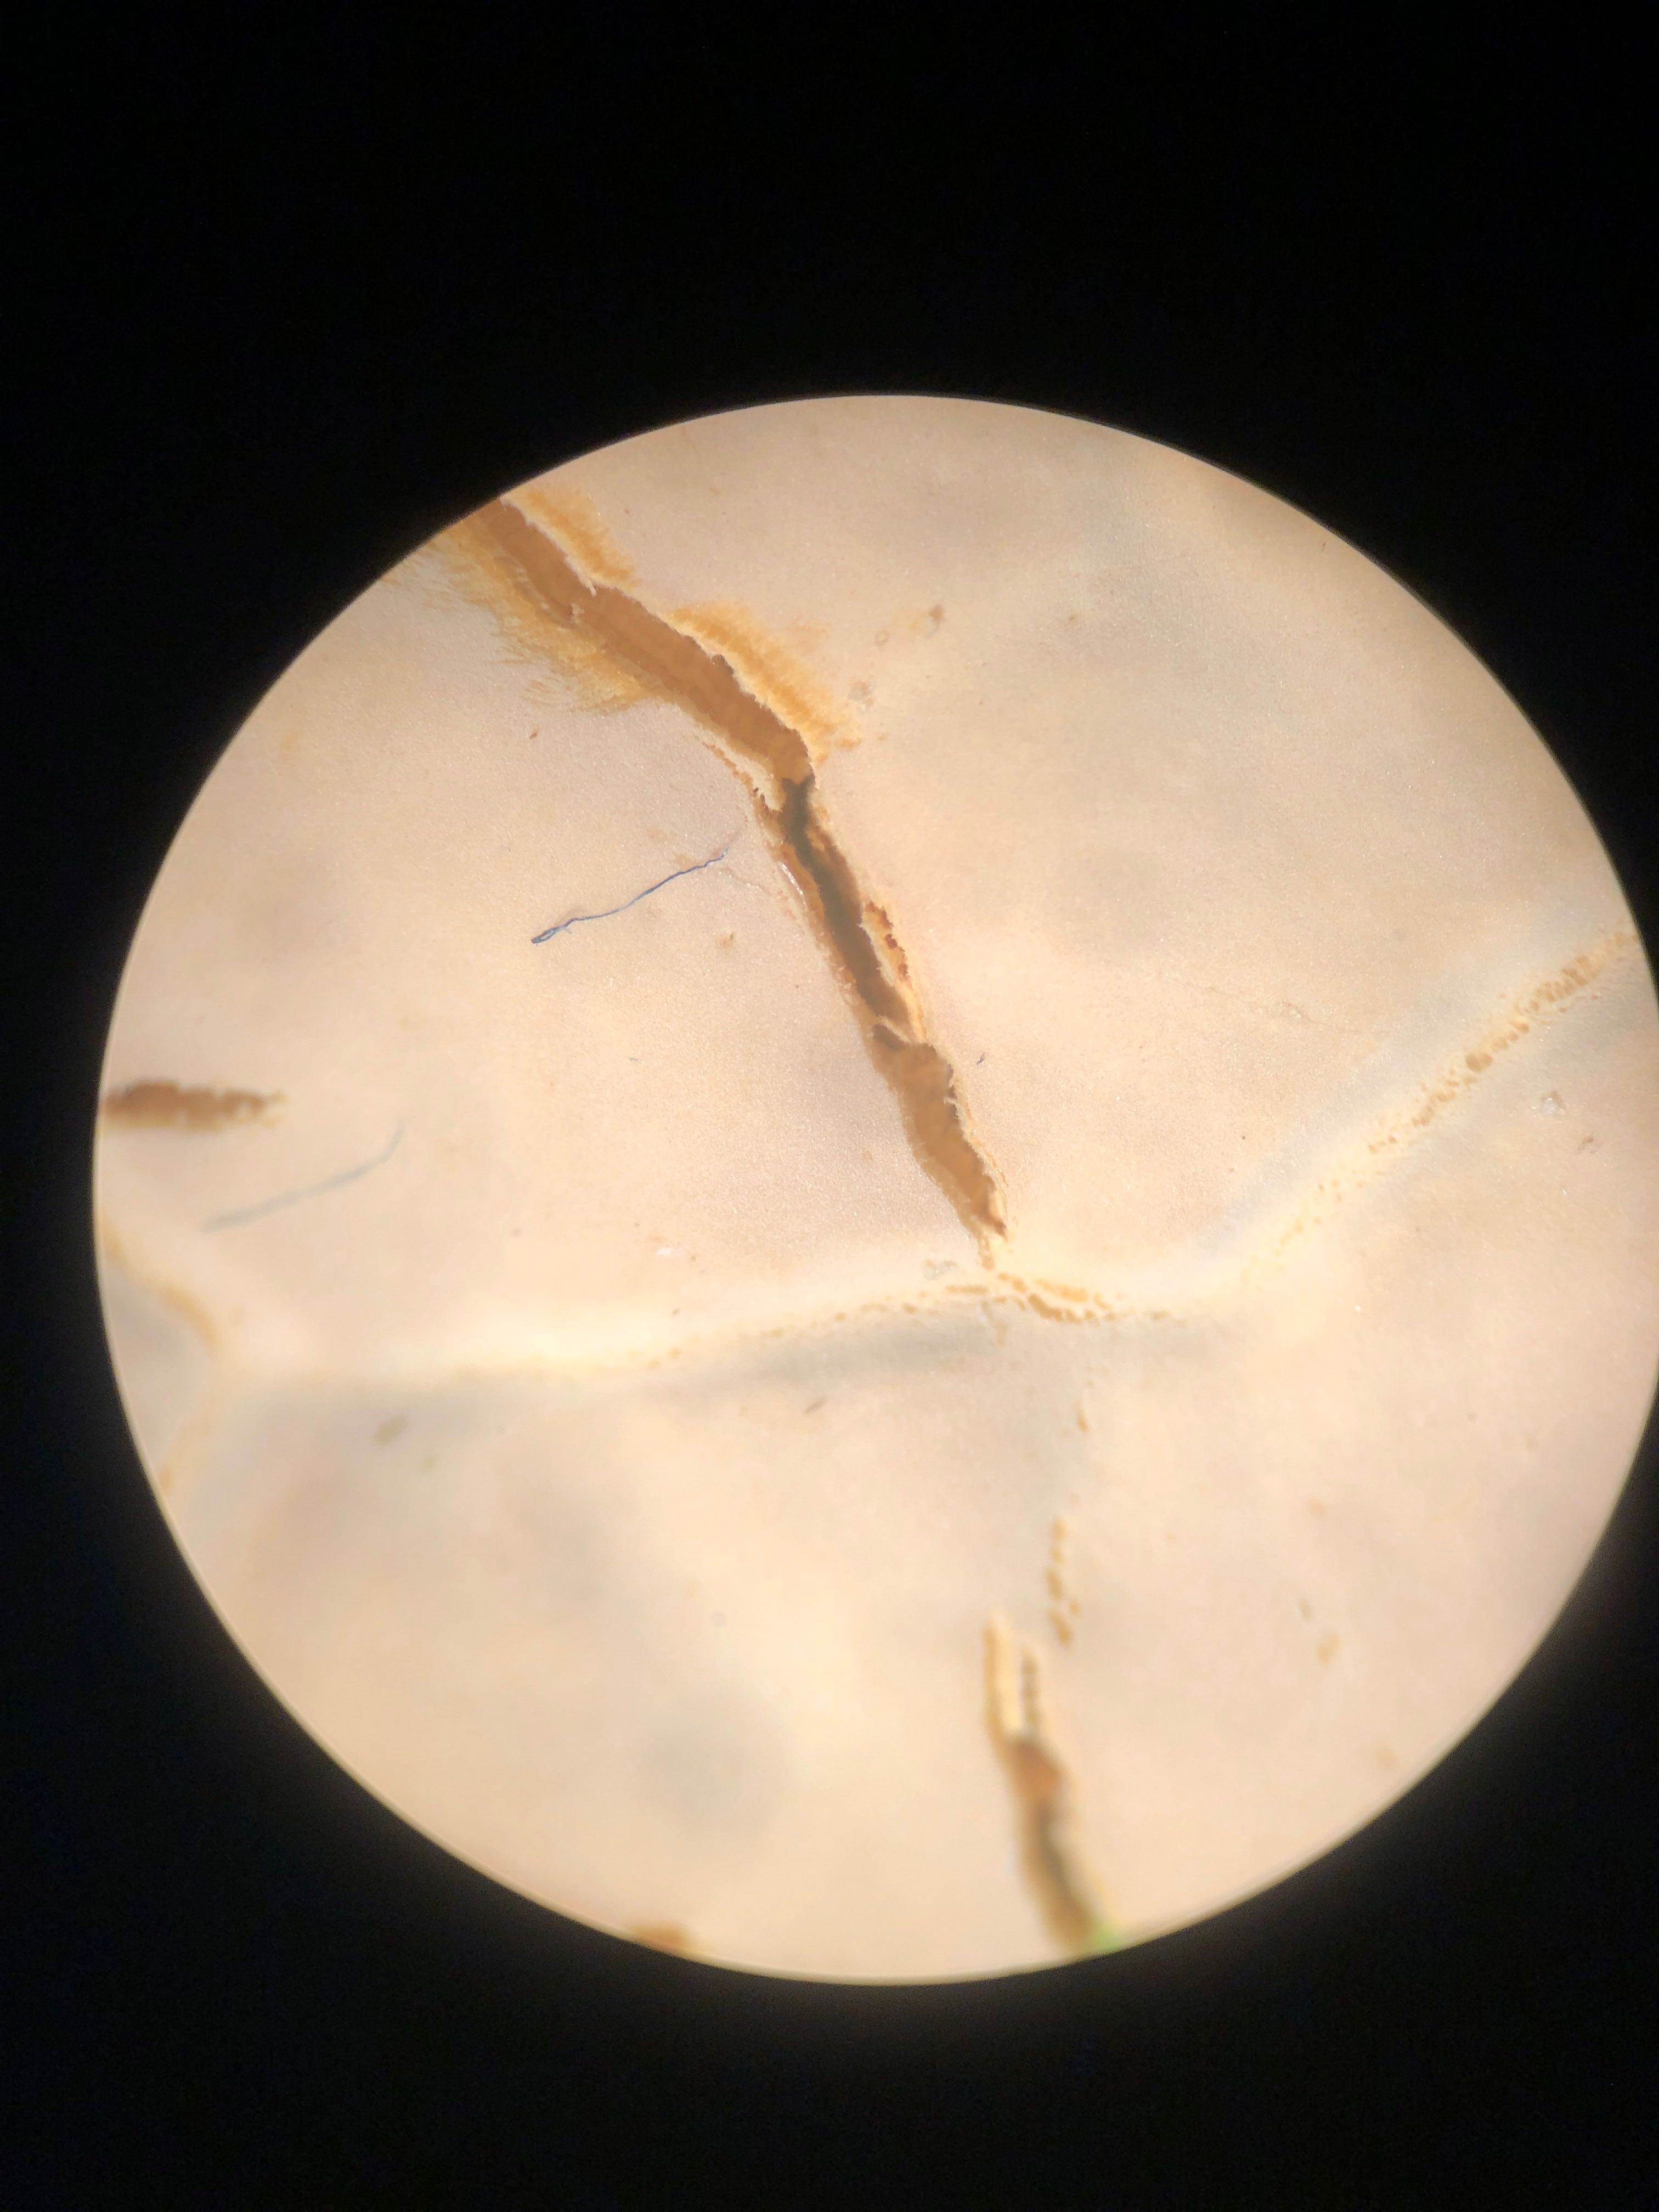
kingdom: Fungi
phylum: Basidiomycota
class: Agaricomycetes
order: Russulales
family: Peniophoraceae
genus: Scytinostroma
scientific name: Scytinostroma hemidichophyticum
